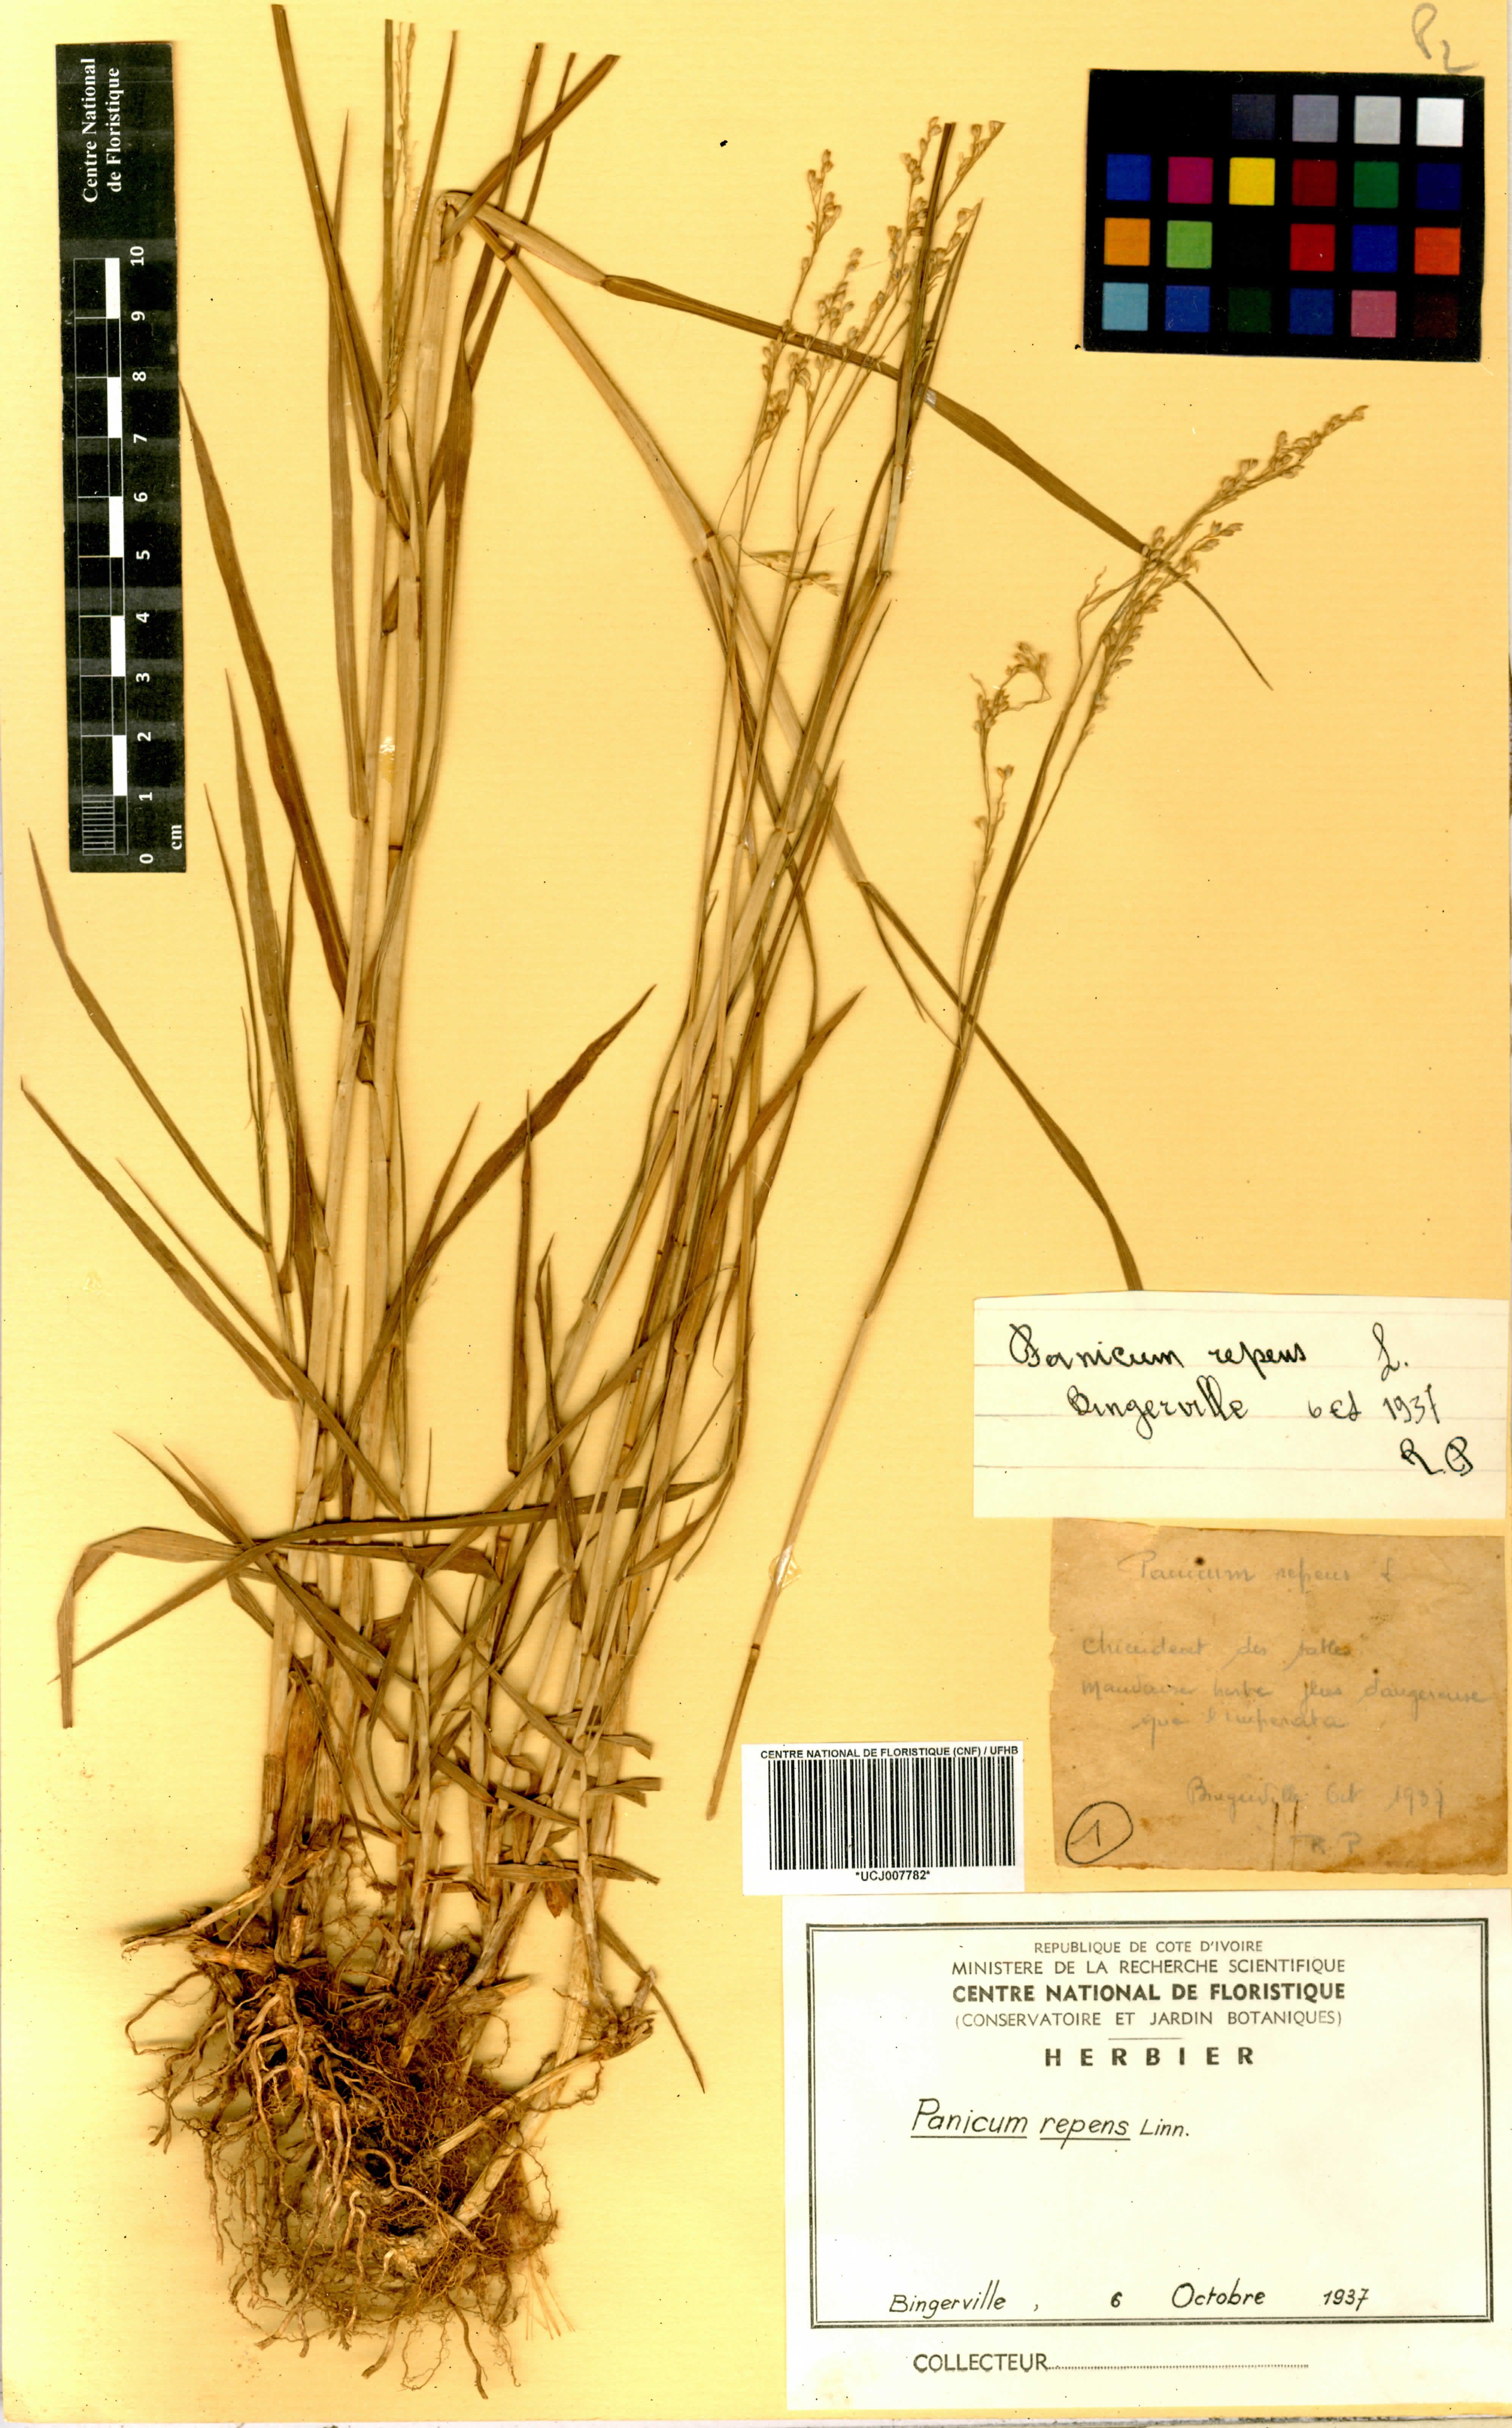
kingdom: Plantae
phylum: Tracheophyta
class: Liliopsida
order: Poales
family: Poaceae
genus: Panicum
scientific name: Panicum repens
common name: Torpedo grass
